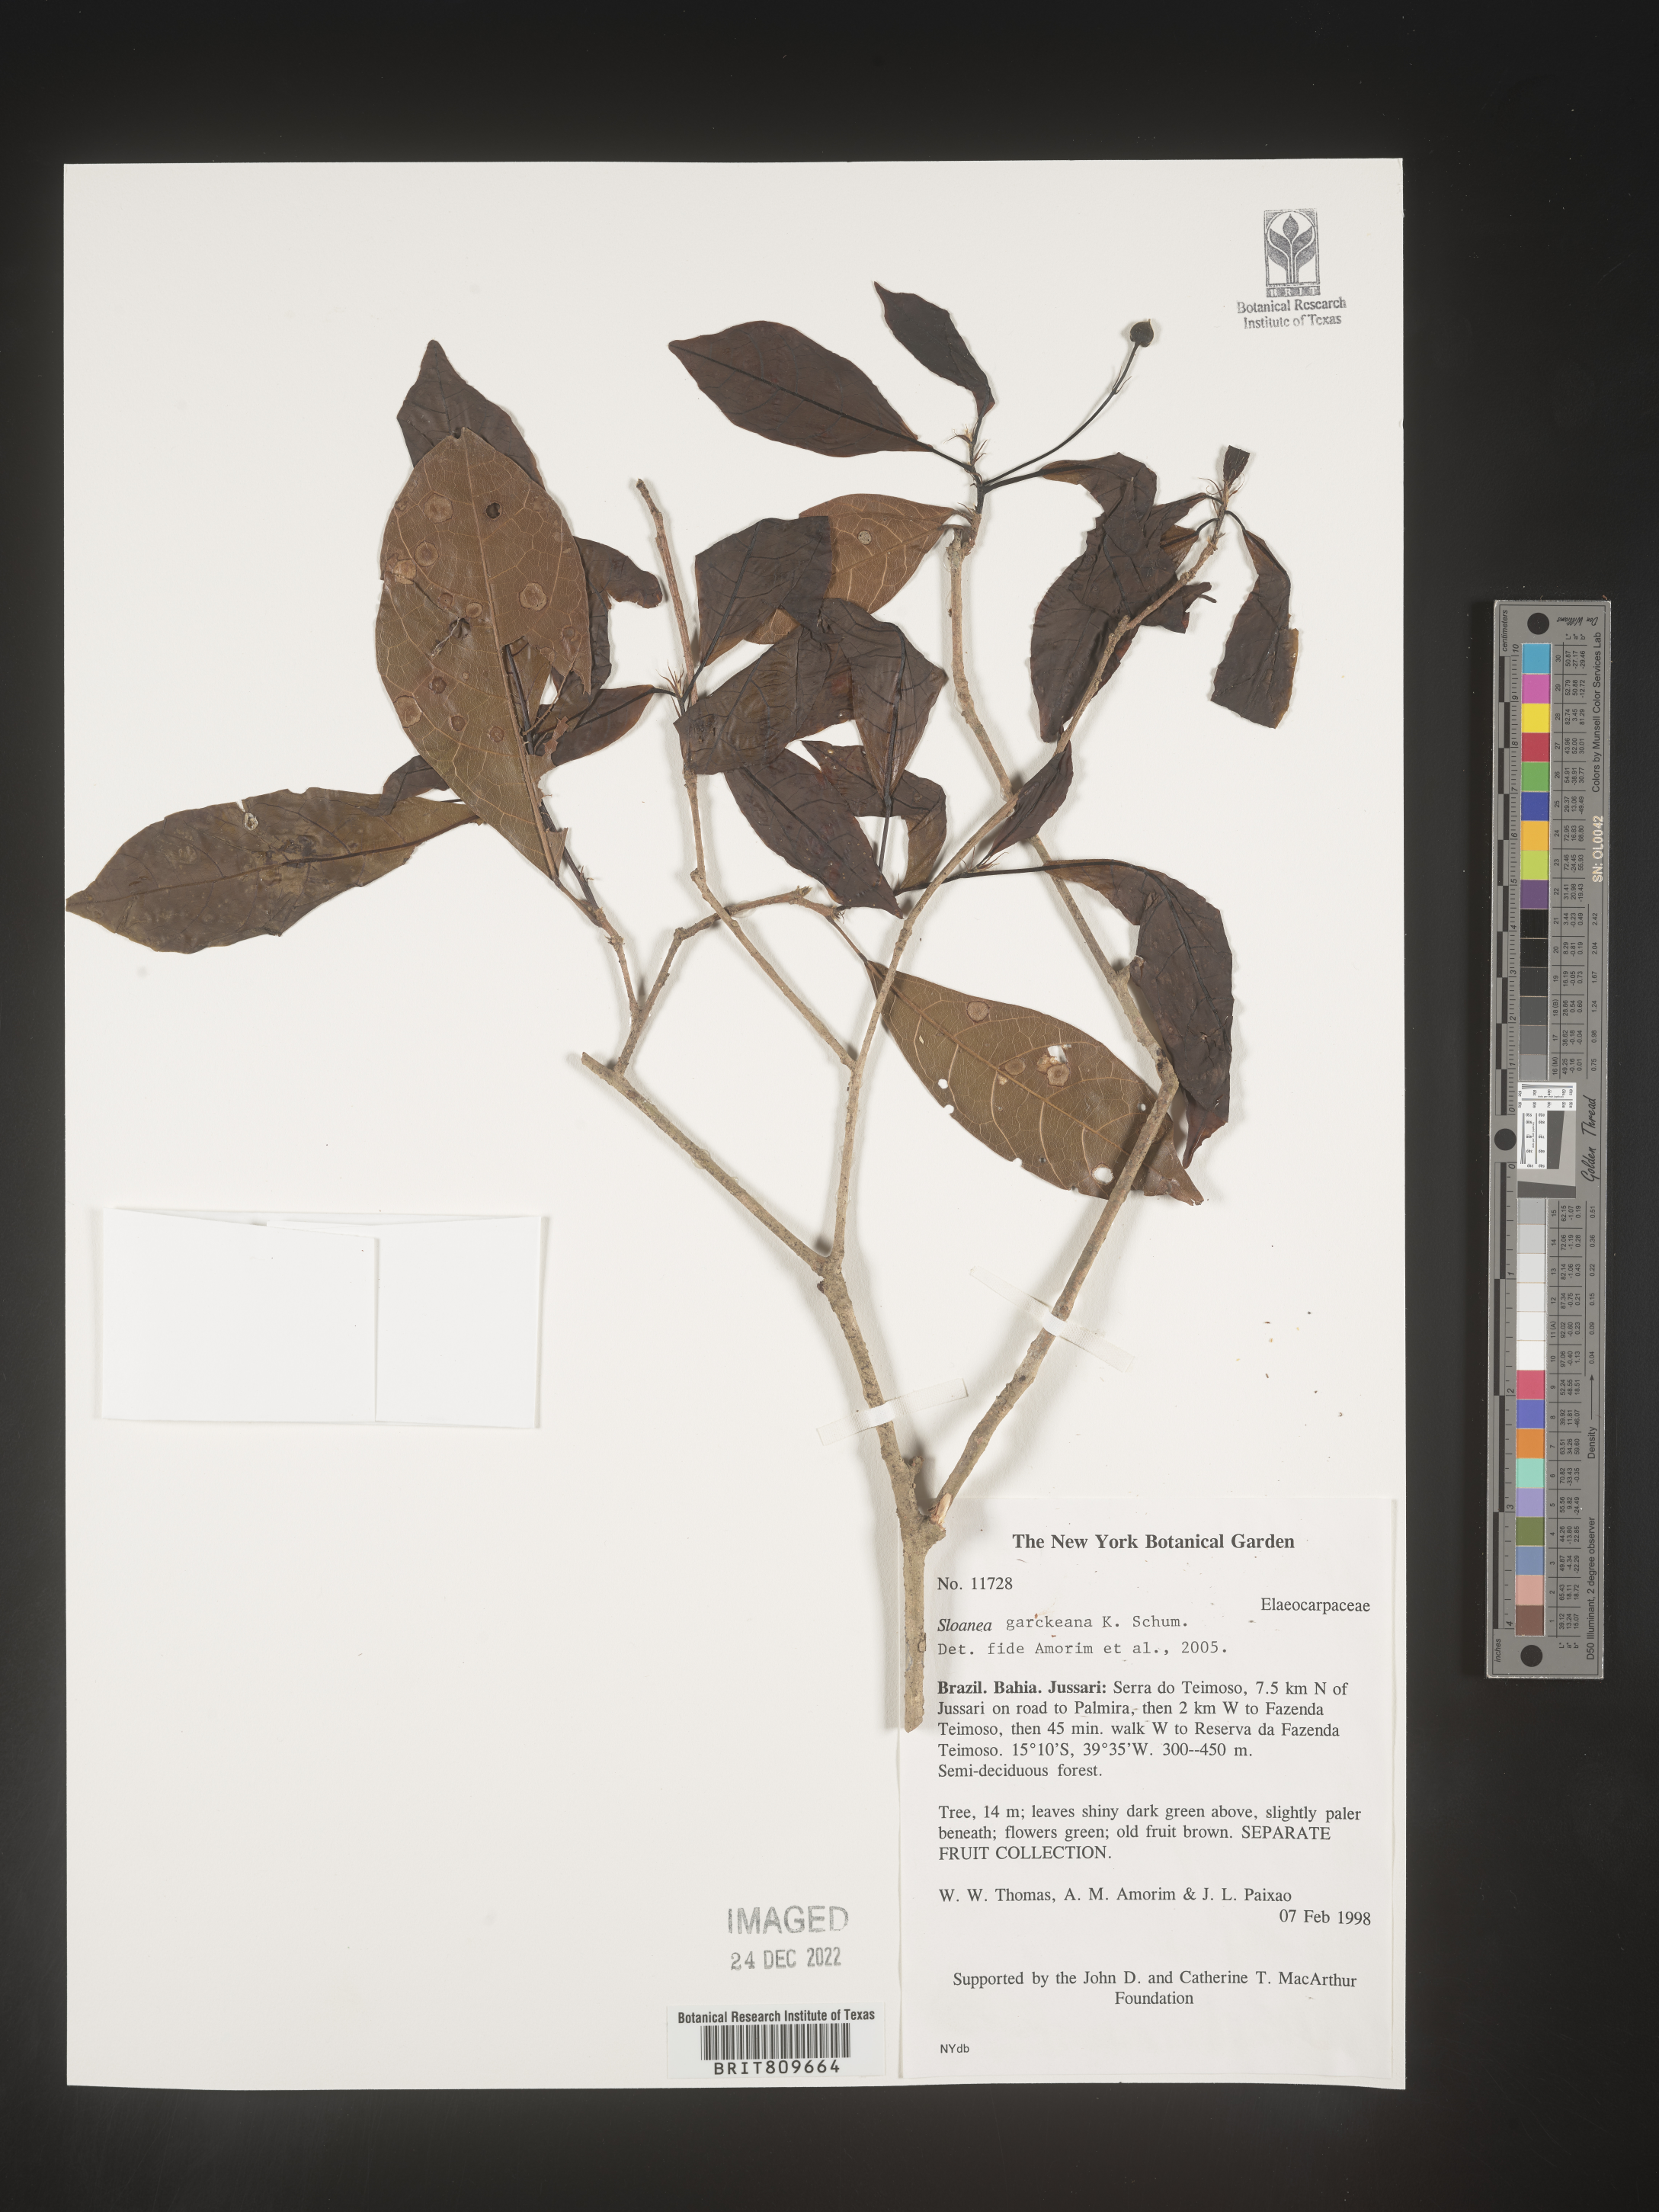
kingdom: Plantae
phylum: Tracheophyta
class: Magnoliopsida
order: Oxalidales
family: Elaeocarpaceae
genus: Sloanea
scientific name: Sloanea
